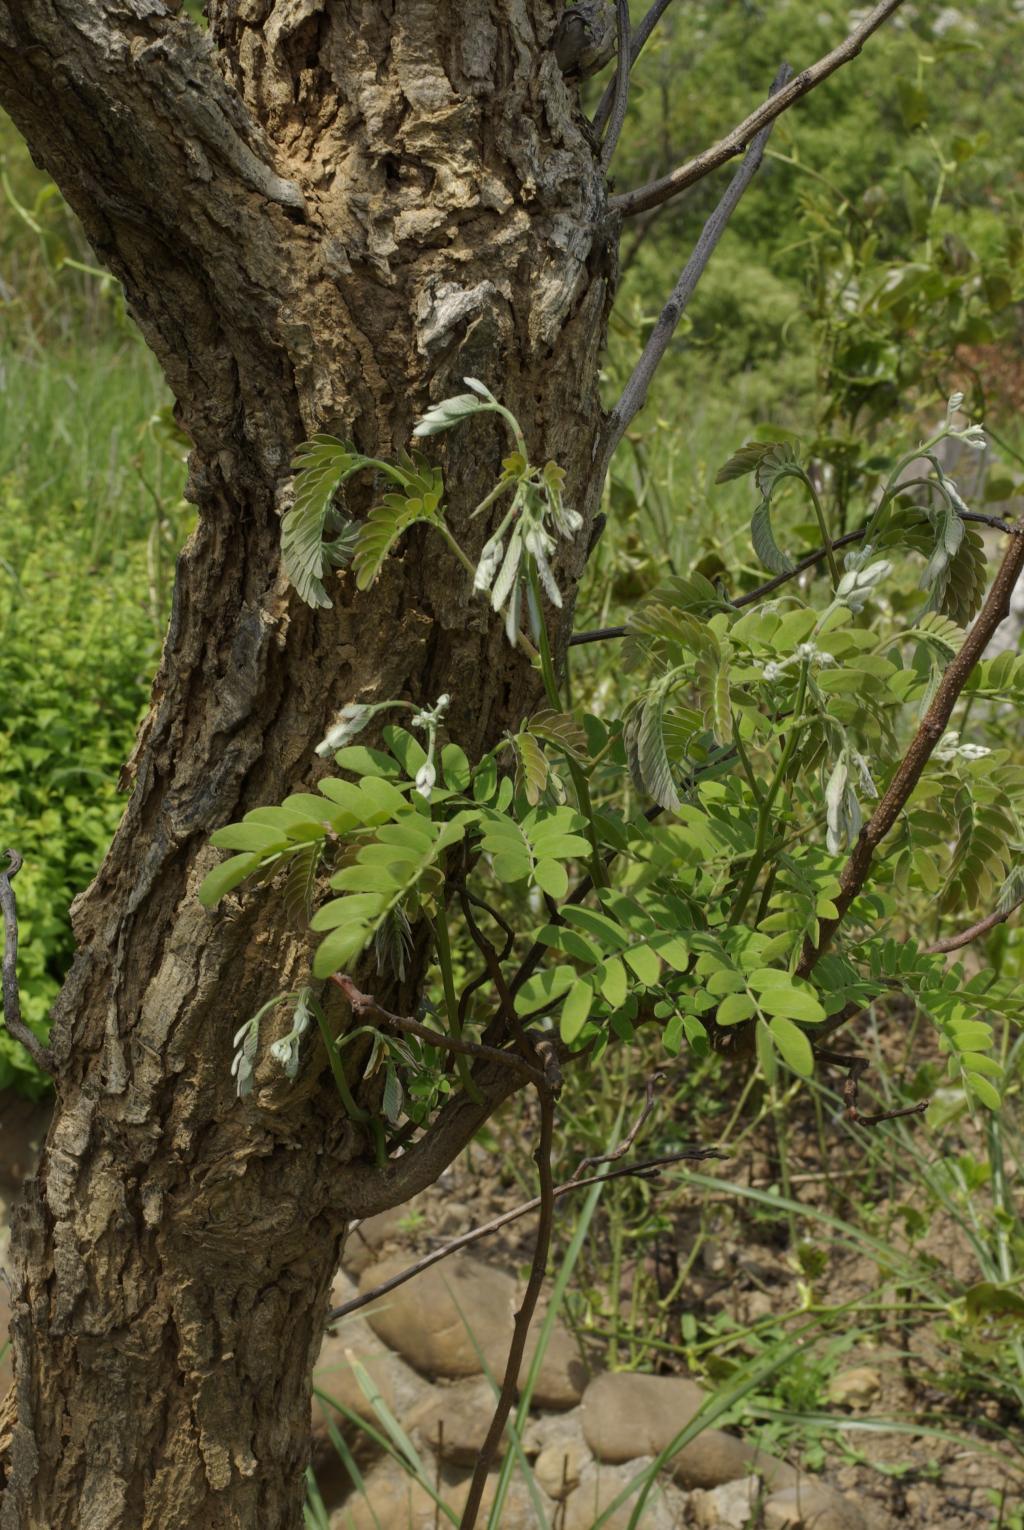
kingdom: Plantae
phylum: Tracheophyta
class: Magnoliopsida
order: Fabales
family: Fabaceae
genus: Albizia
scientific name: Albizia kalkora
